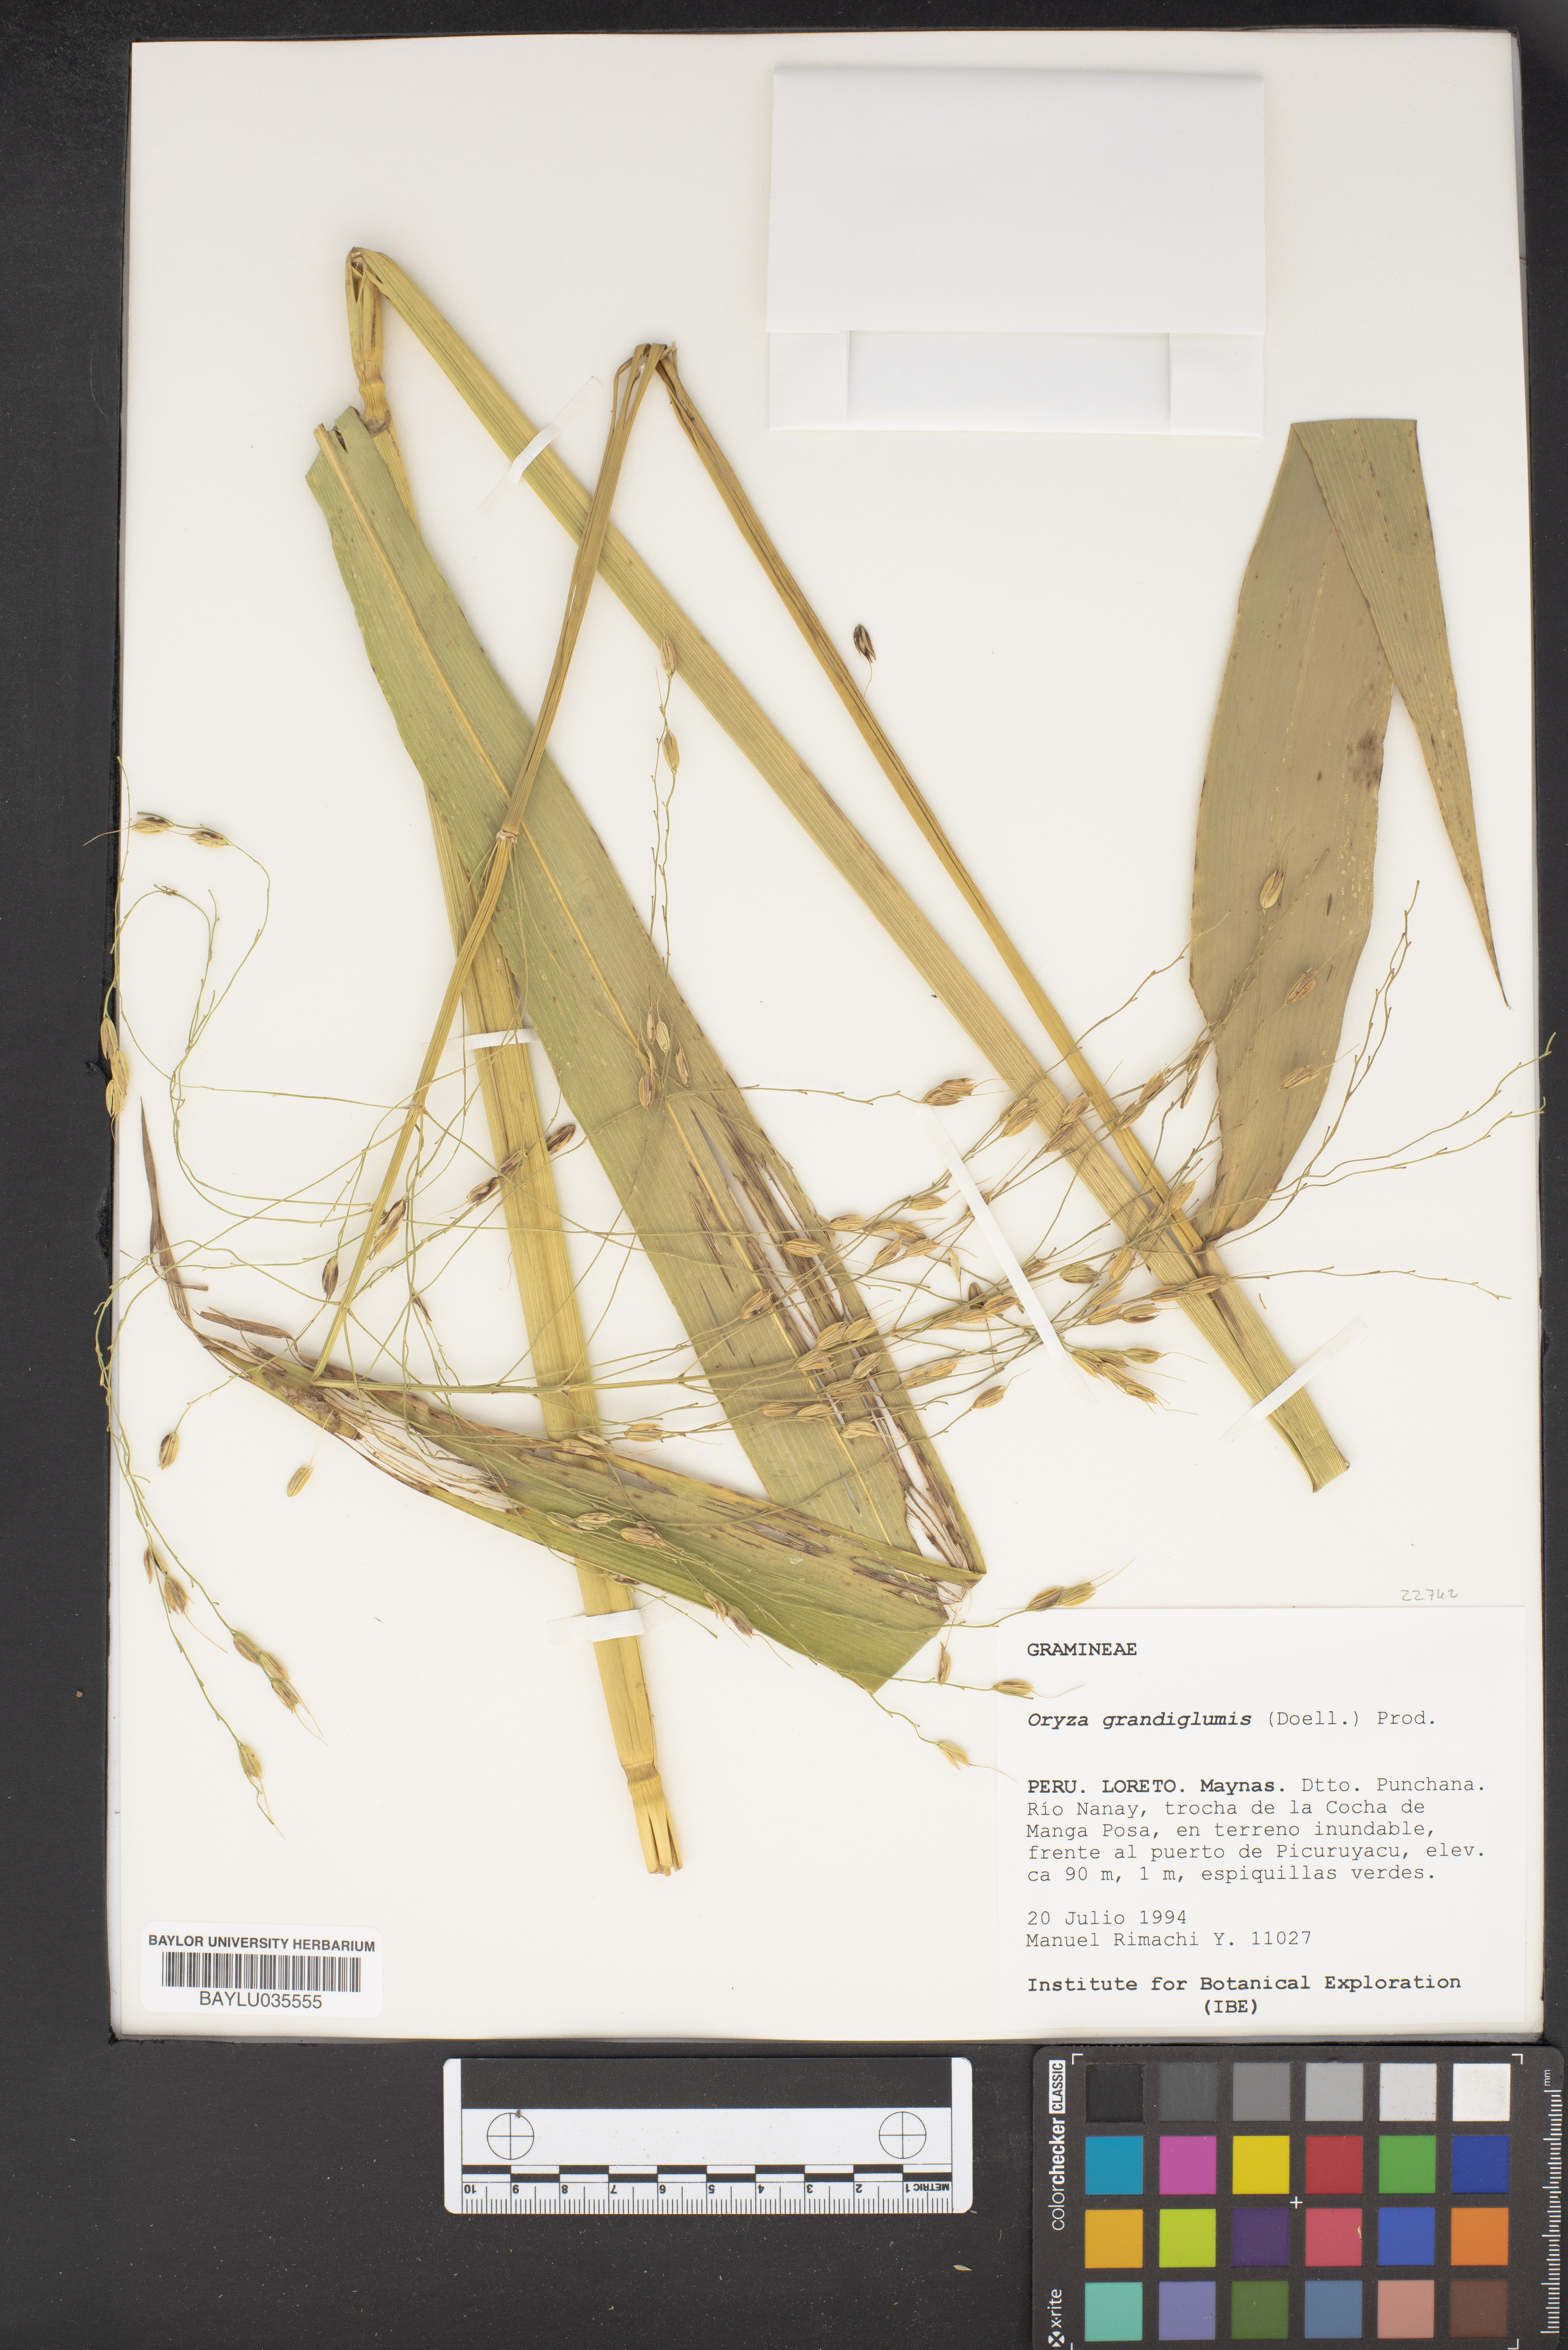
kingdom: Plantae
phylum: Tracheophyta
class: Liliopsida
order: Poales
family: Poaceae
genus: Oryza
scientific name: Oryza grandiglumis
